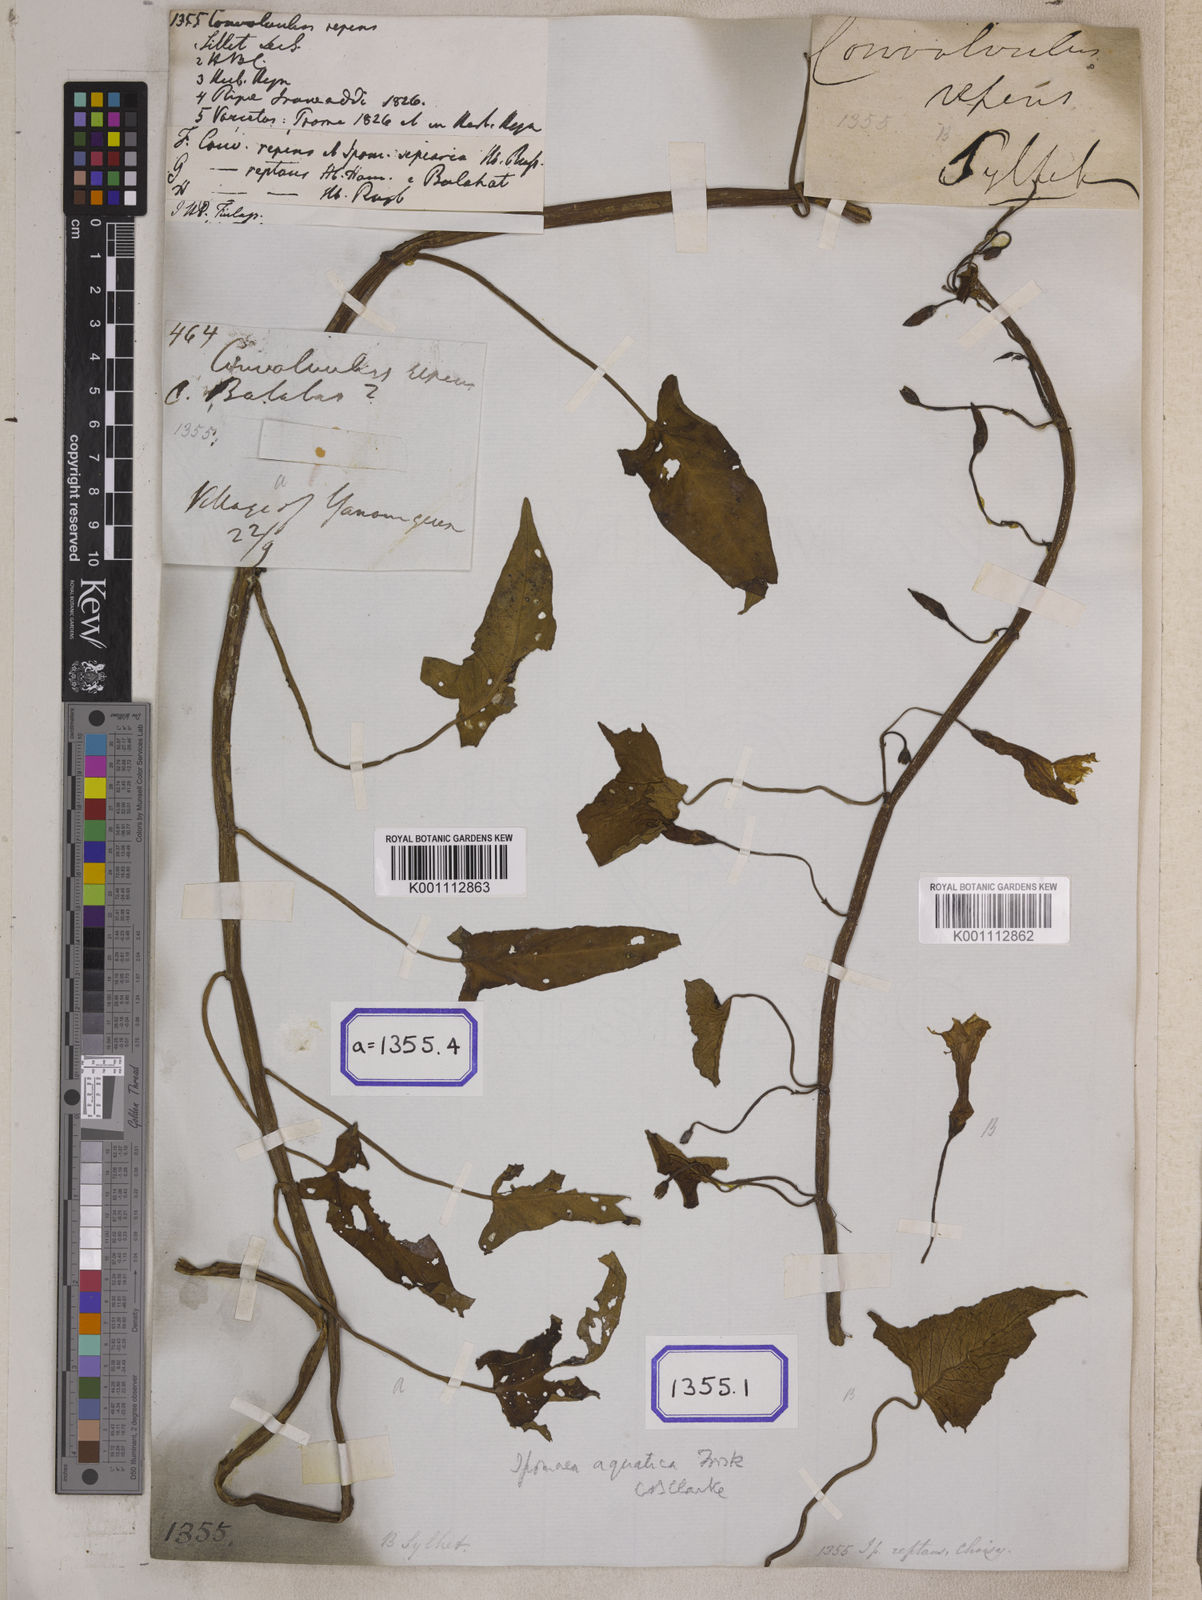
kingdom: Plantae
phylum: Tracheophyta
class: Magnoliopsida
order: Solanales
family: Convolvulaceae
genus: Calystegia
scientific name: Calystegia sepium
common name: Hedge bindweed
